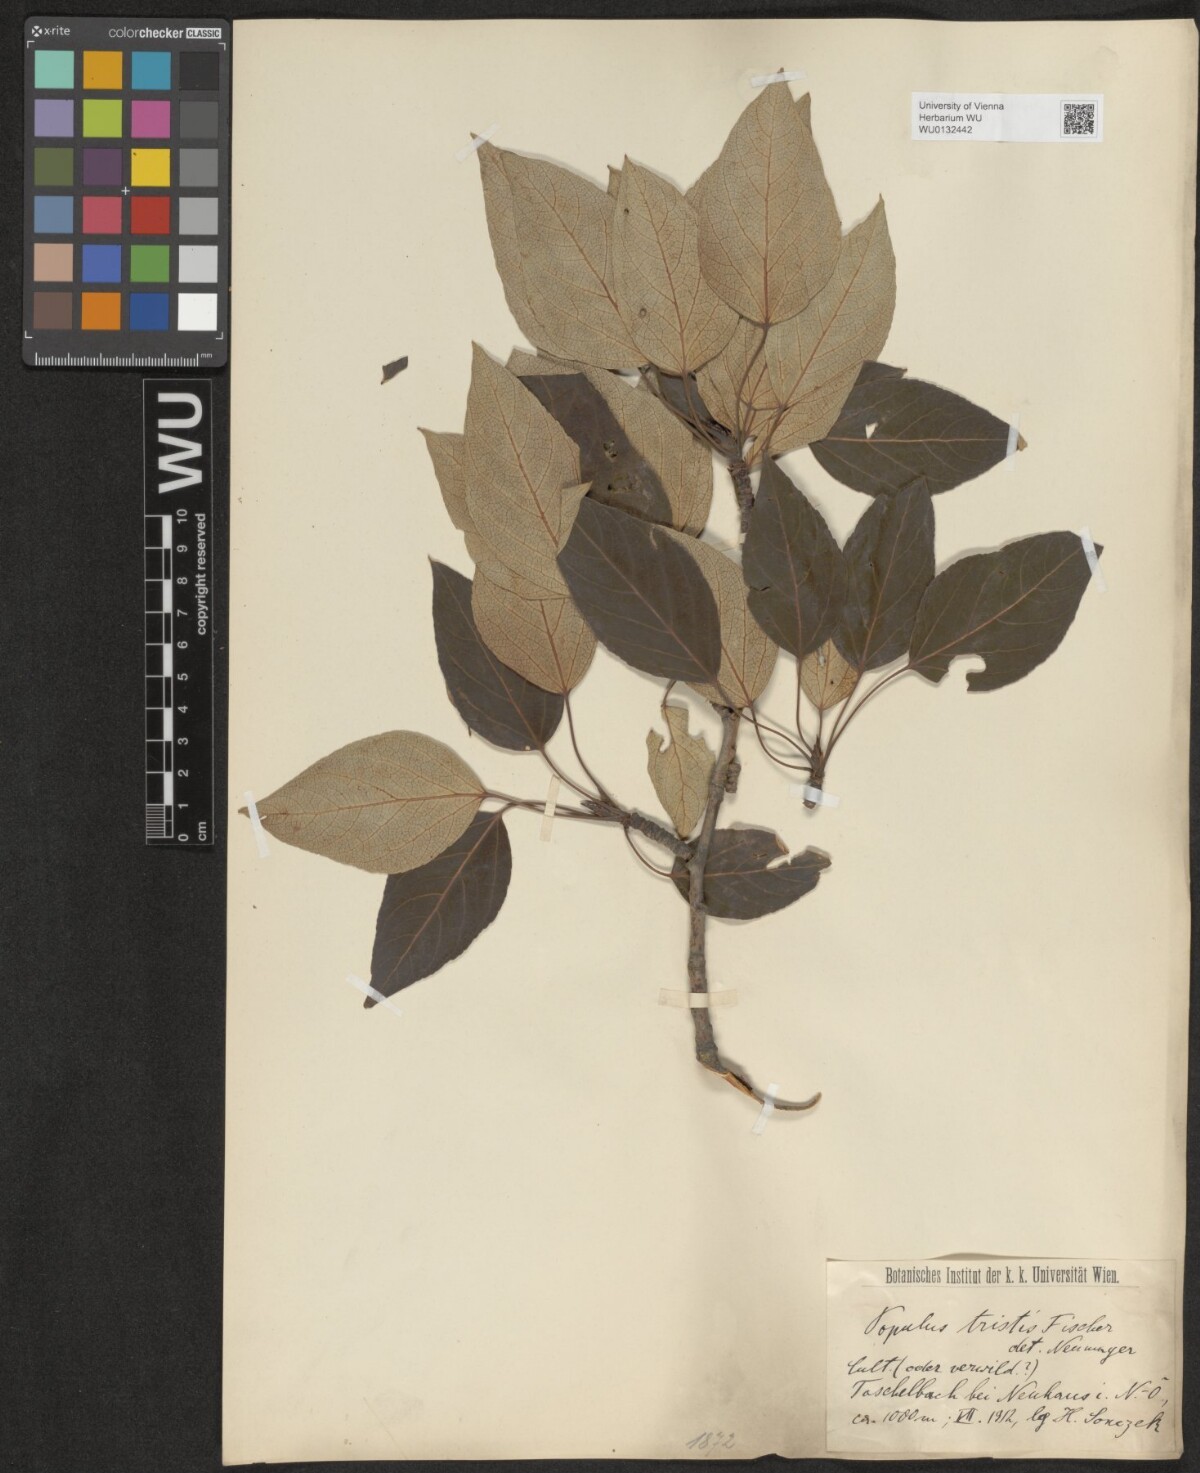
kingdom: Plantae
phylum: Tracheophyta
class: Magnoliopsida
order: Malpighiales
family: Salicaceae
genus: Populus
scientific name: Populus trichocarpa
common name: Black cottonwood
